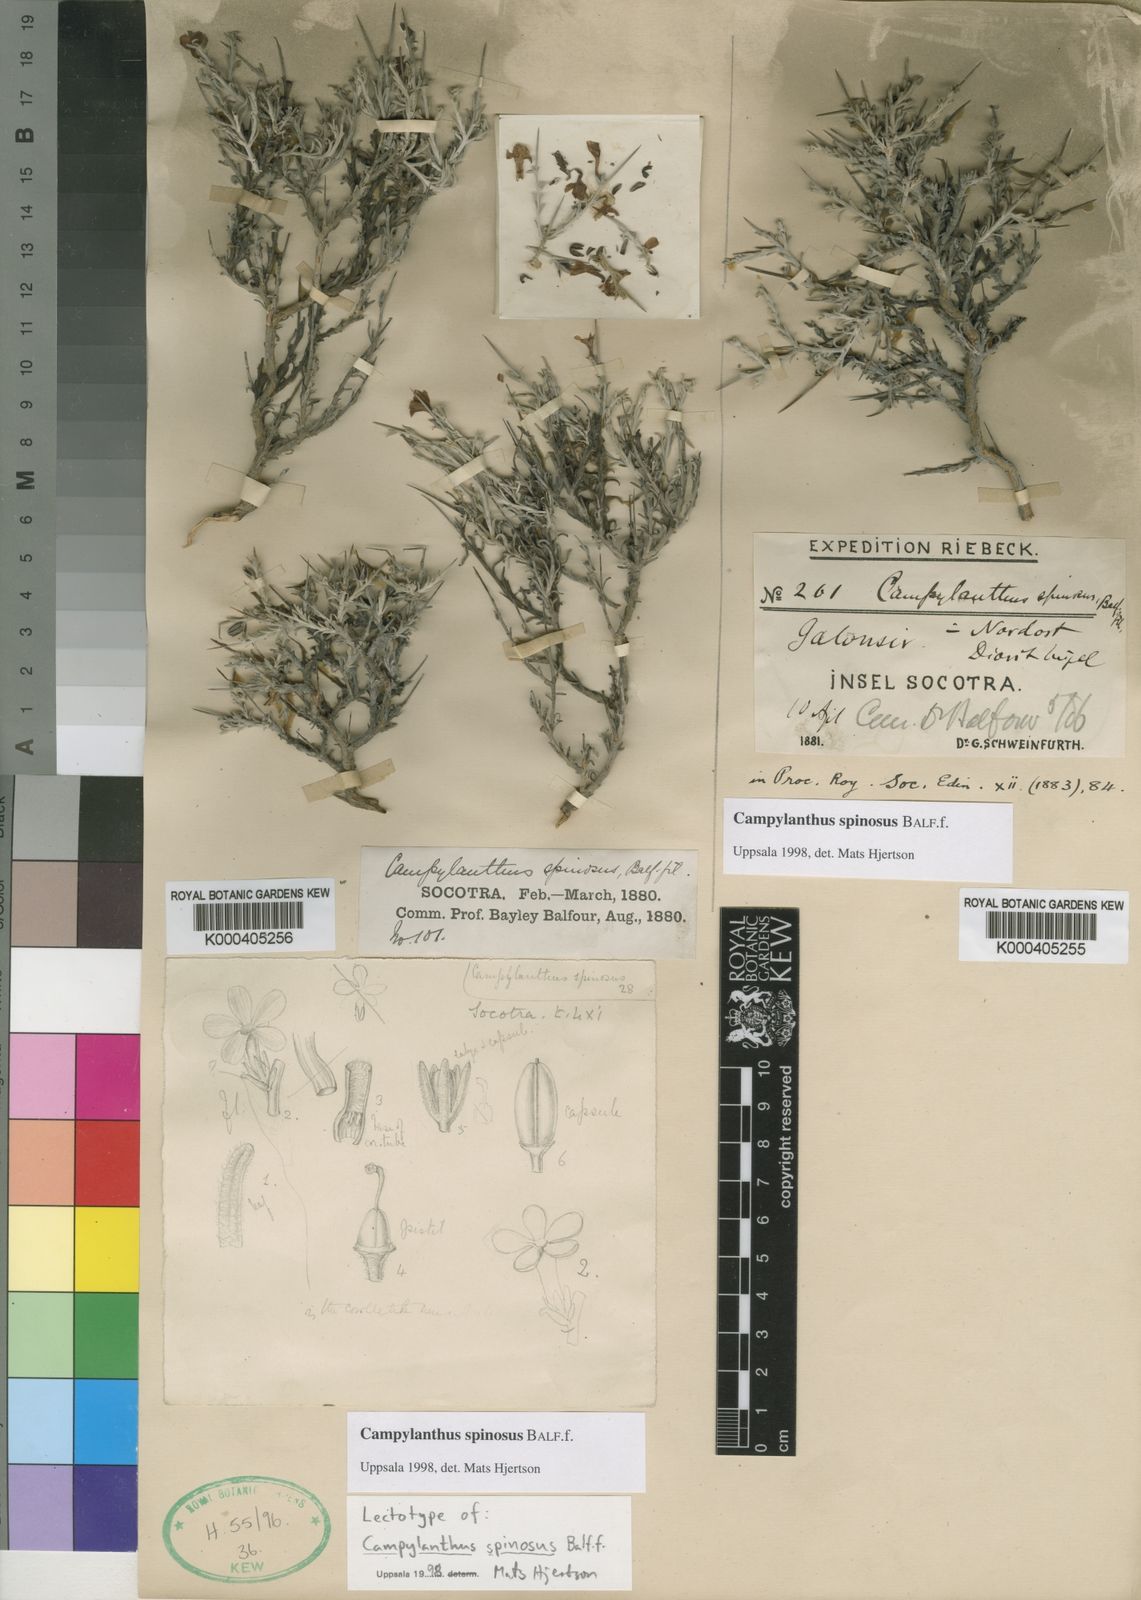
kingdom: Plantae
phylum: Tracheophyta
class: Magnoliopsida
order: Lamiales
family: Plantaginaceae
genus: Campylanthus
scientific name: Campylanthus spinosus
